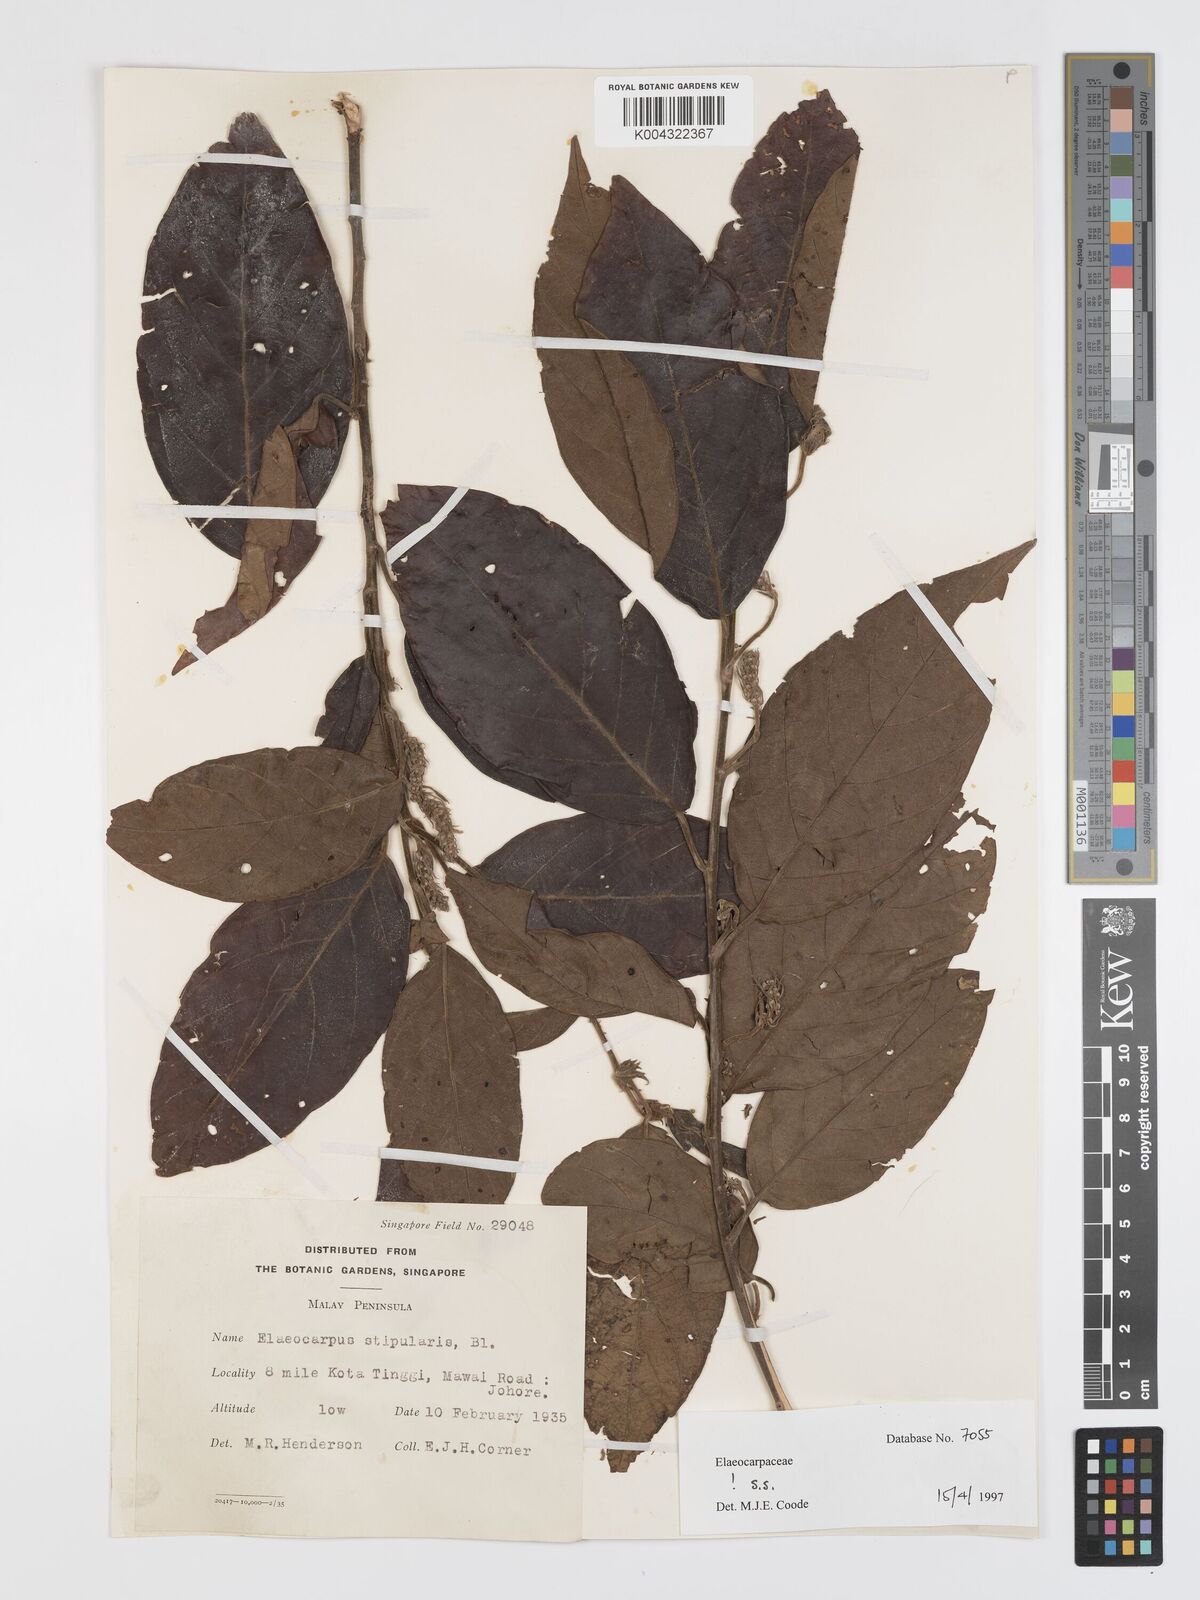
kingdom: Plantae
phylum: Tracheophyta
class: Magnoliopsida
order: Oxalidales
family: Elaeocarpaceae
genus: Elaeocarpus
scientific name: Elaeocarpus stipularis
